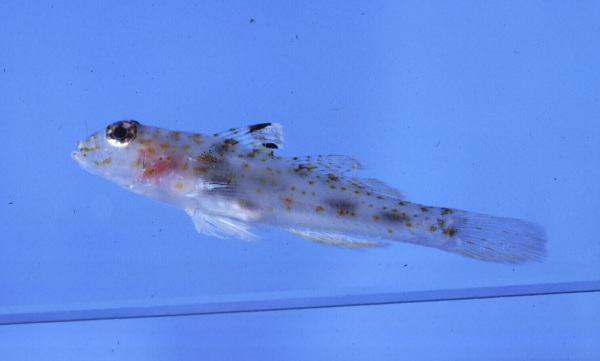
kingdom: Animalia
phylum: Chordata
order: Perciformes
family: Gobiidae
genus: Fusigobius
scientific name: Fusigobius duospilus
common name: Twospot goby
